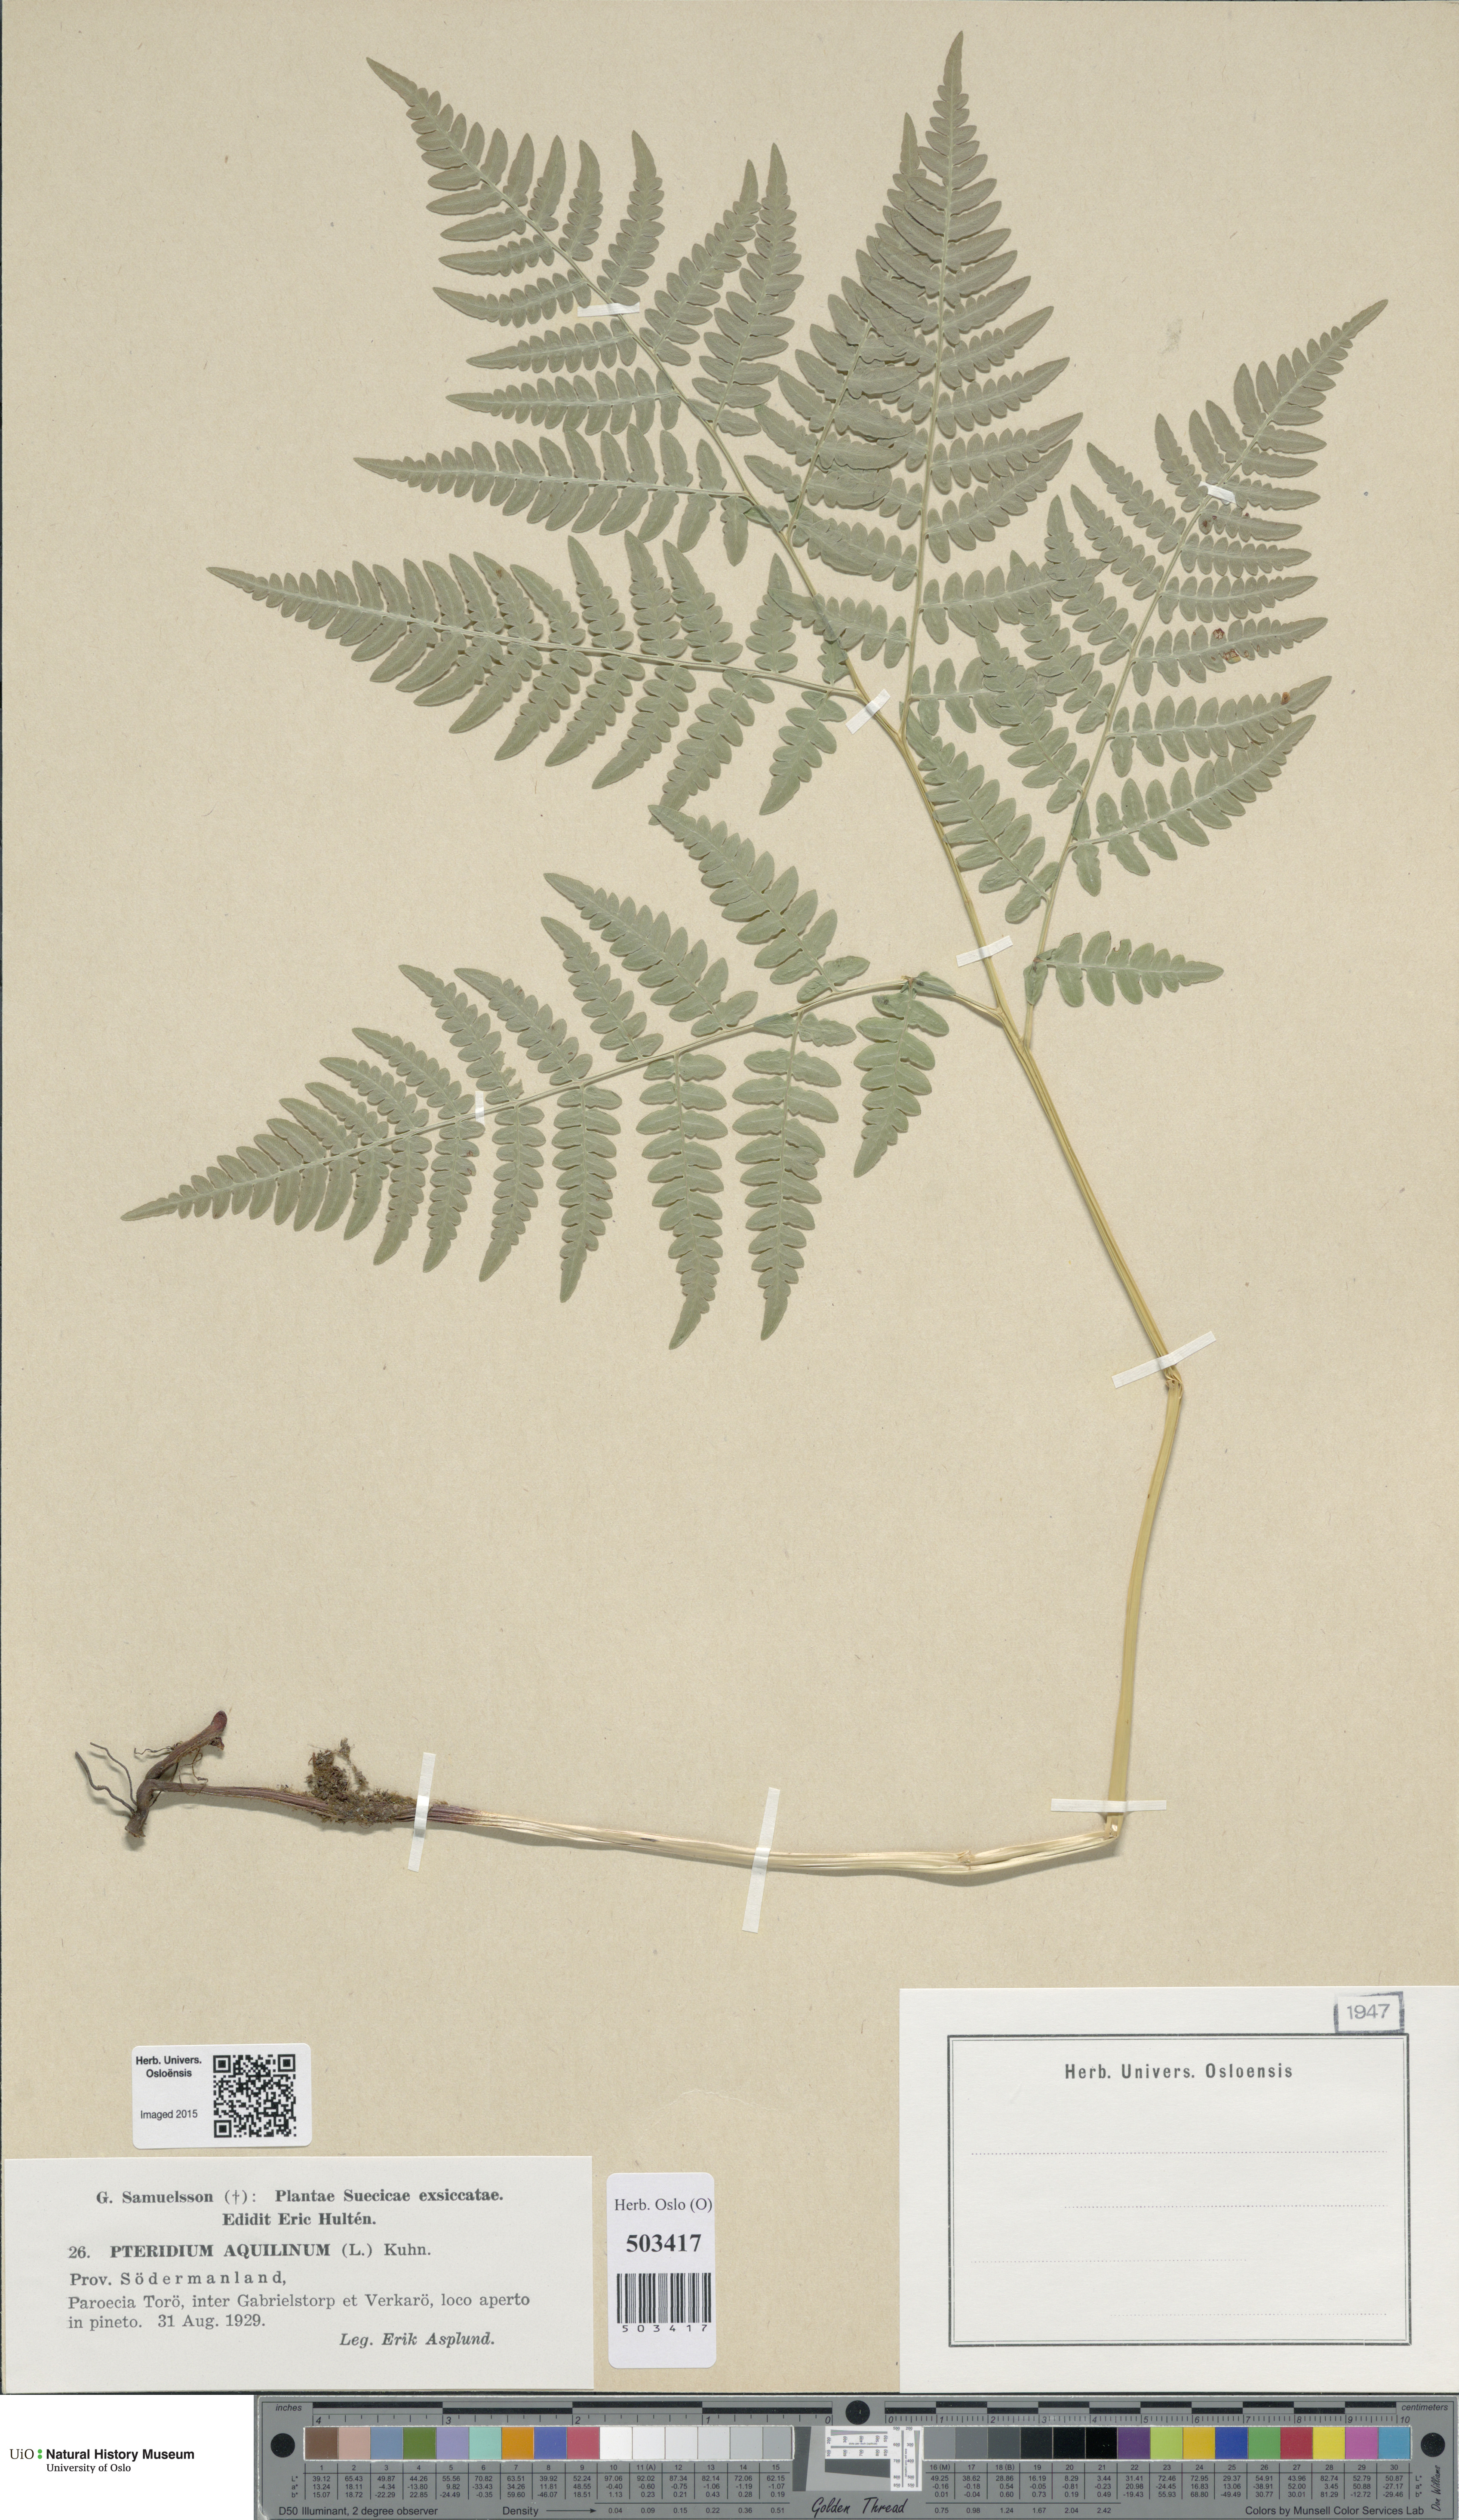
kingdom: Plantae
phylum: Tracheophyta
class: Polypodiopsida
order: Polypodiales
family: Dennstaedtiaceae
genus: Pteridium
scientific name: Pteridium aquilinum
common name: Bracken
